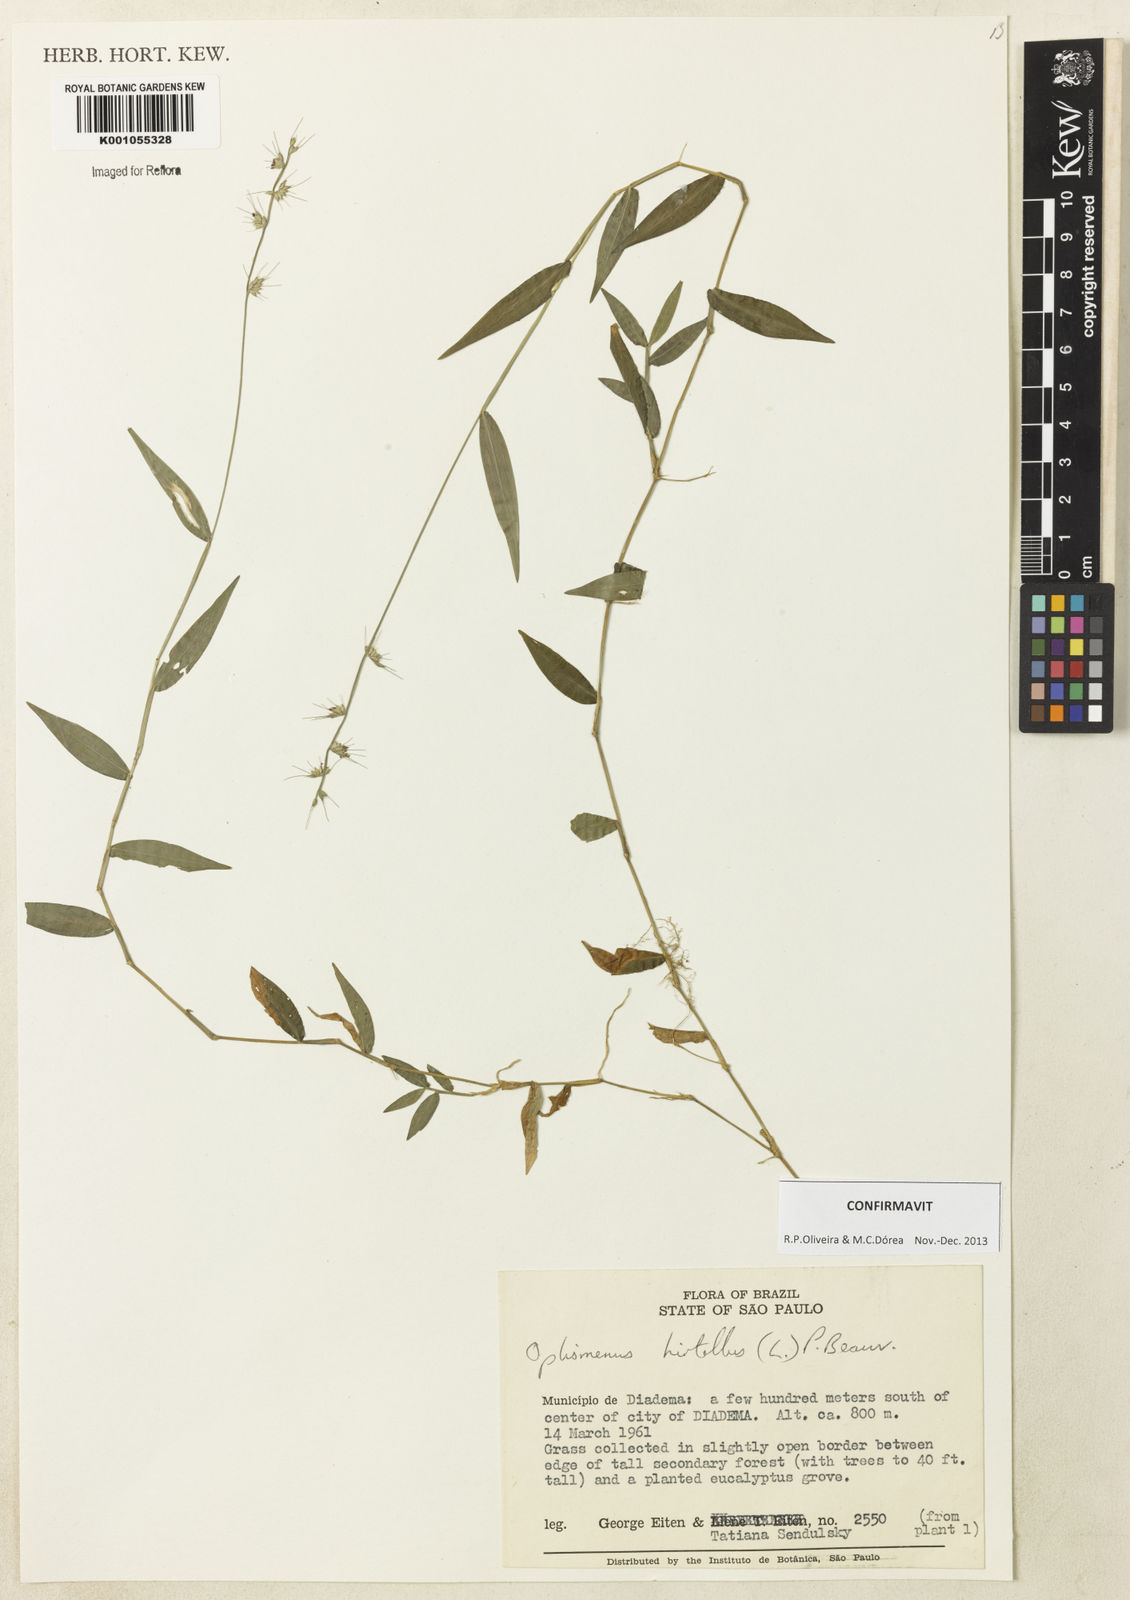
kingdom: Plantae
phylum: Tracheophyta
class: Liliopsida
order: Poales
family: Poaceae
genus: Oplismenus
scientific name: Oplismenus hirtellus
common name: Basketgrass
